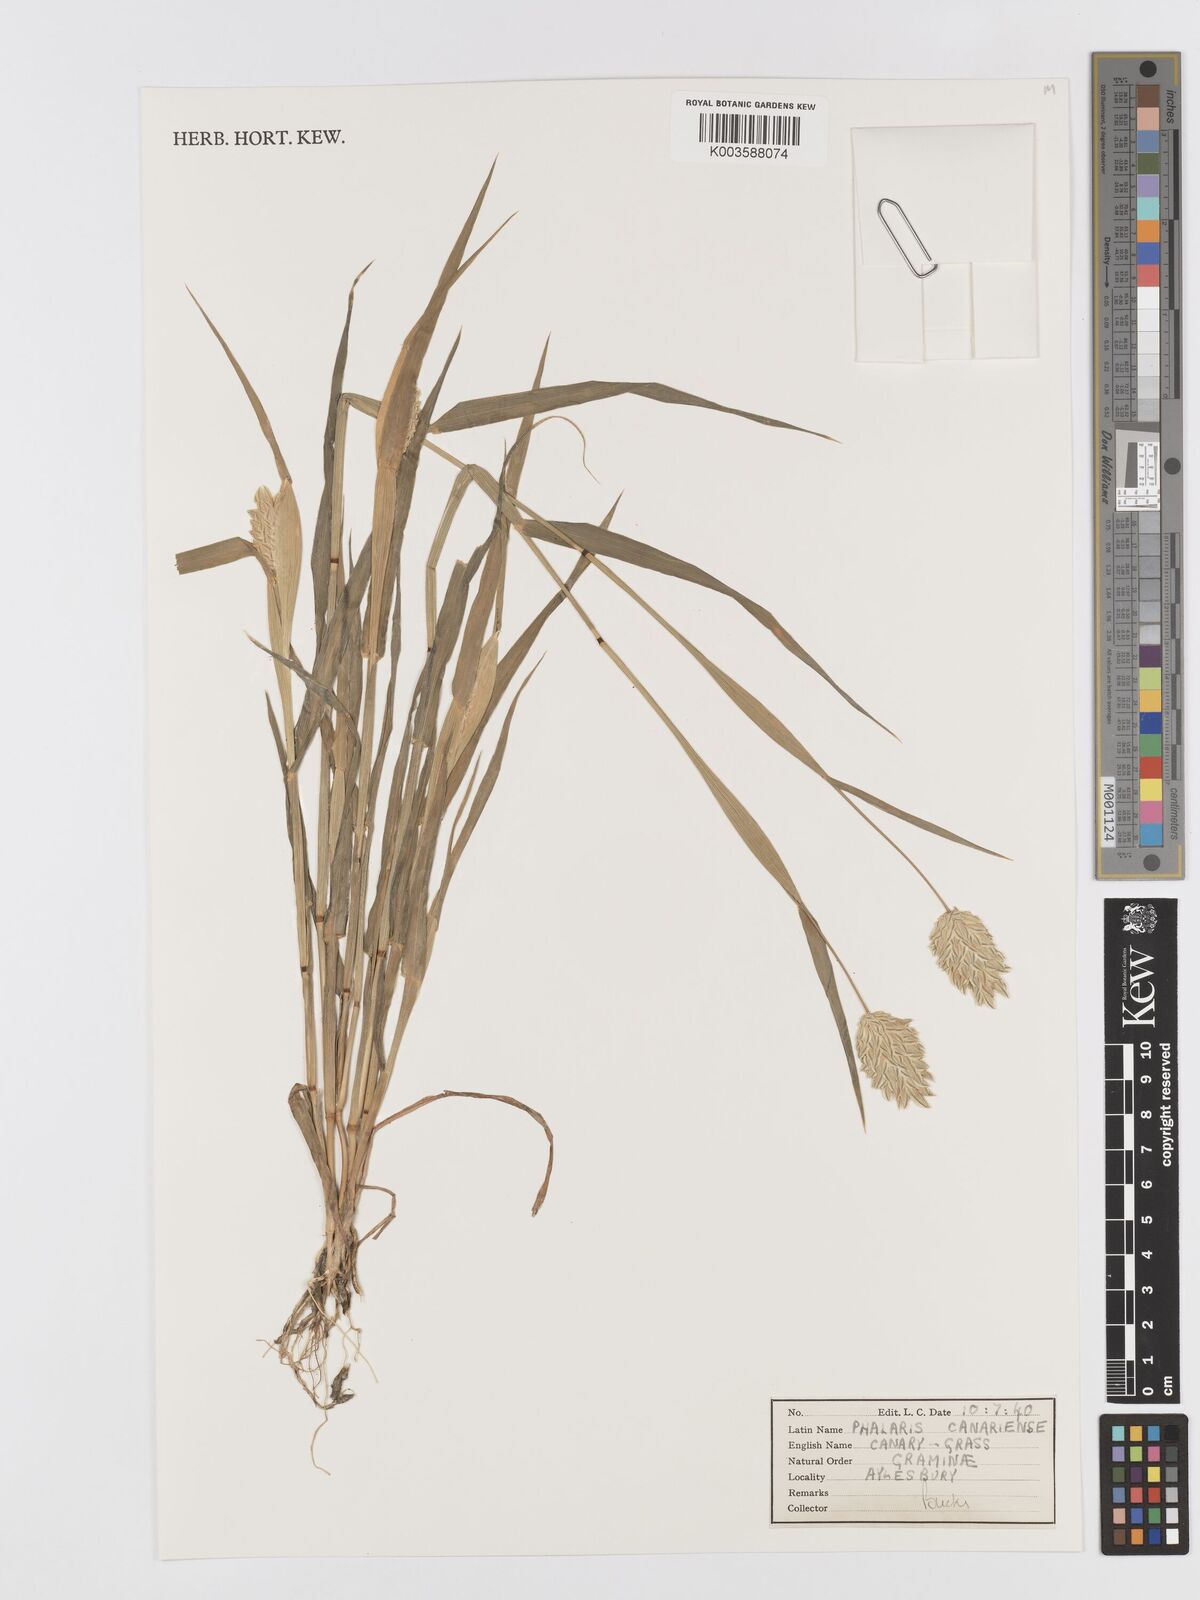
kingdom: Plantae
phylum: Tracheophyta
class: Liliopsida
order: Poales
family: Poaceae
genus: Phalaris
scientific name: Phalaris canariensis
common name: Annual canarygrass
